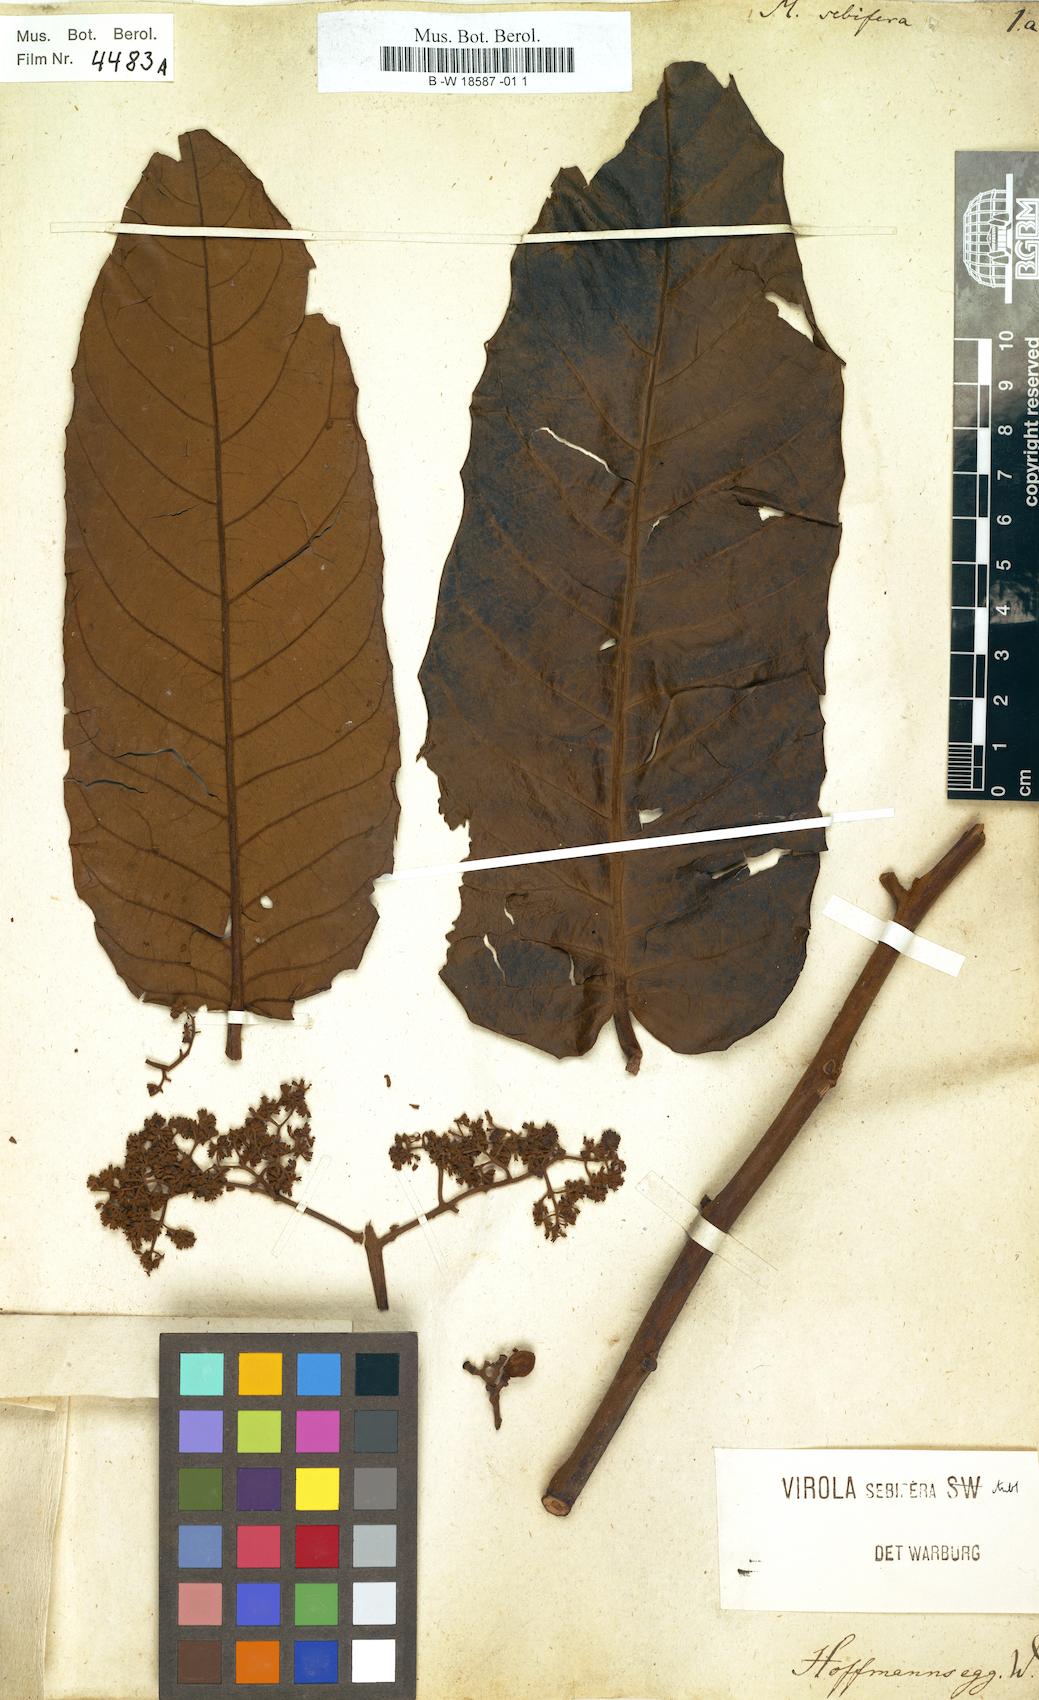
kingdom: Plantae
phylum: Tracheophyta
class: Magnoliopsida
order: Magnoliales
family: Myristicaceae
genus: Myristica
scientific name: Myristica sebifera
